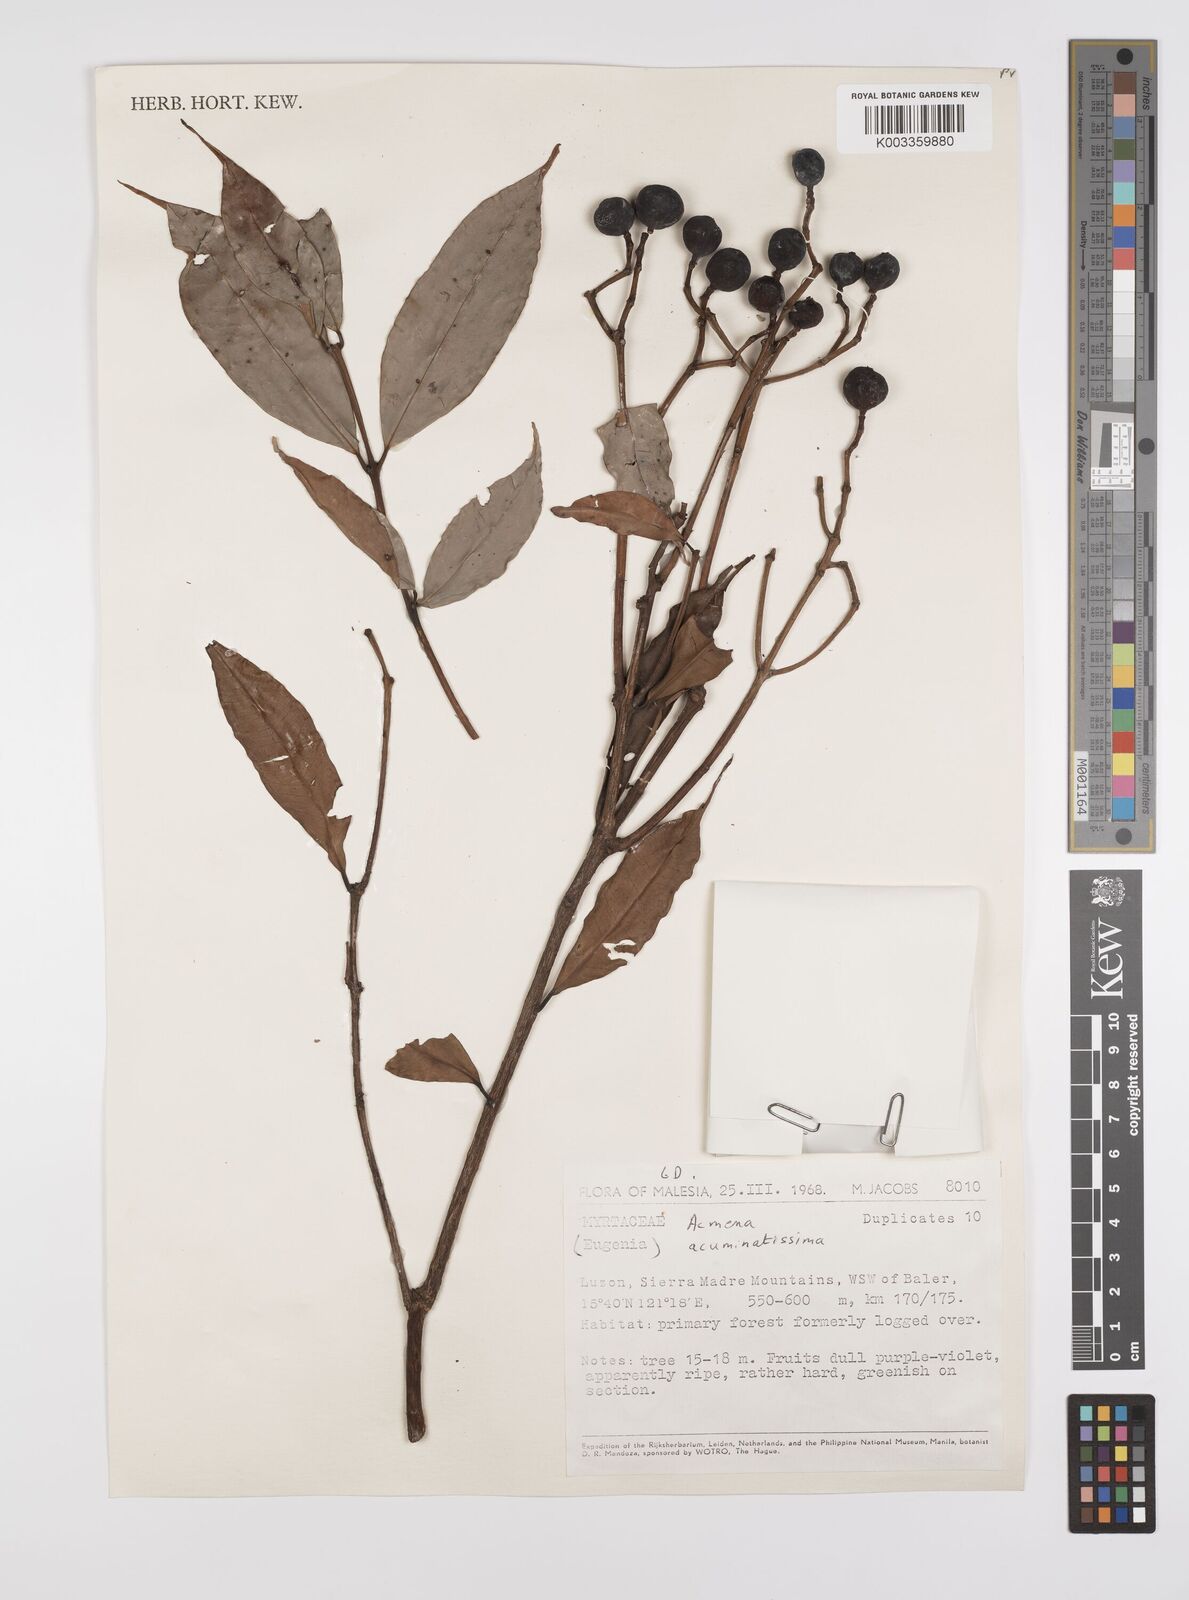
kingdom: Plantae
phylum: Tracheophyta
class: Magnoliopsida
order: Myrtales
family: Myrtaceae
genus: Syzygium
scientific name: Syzygium
